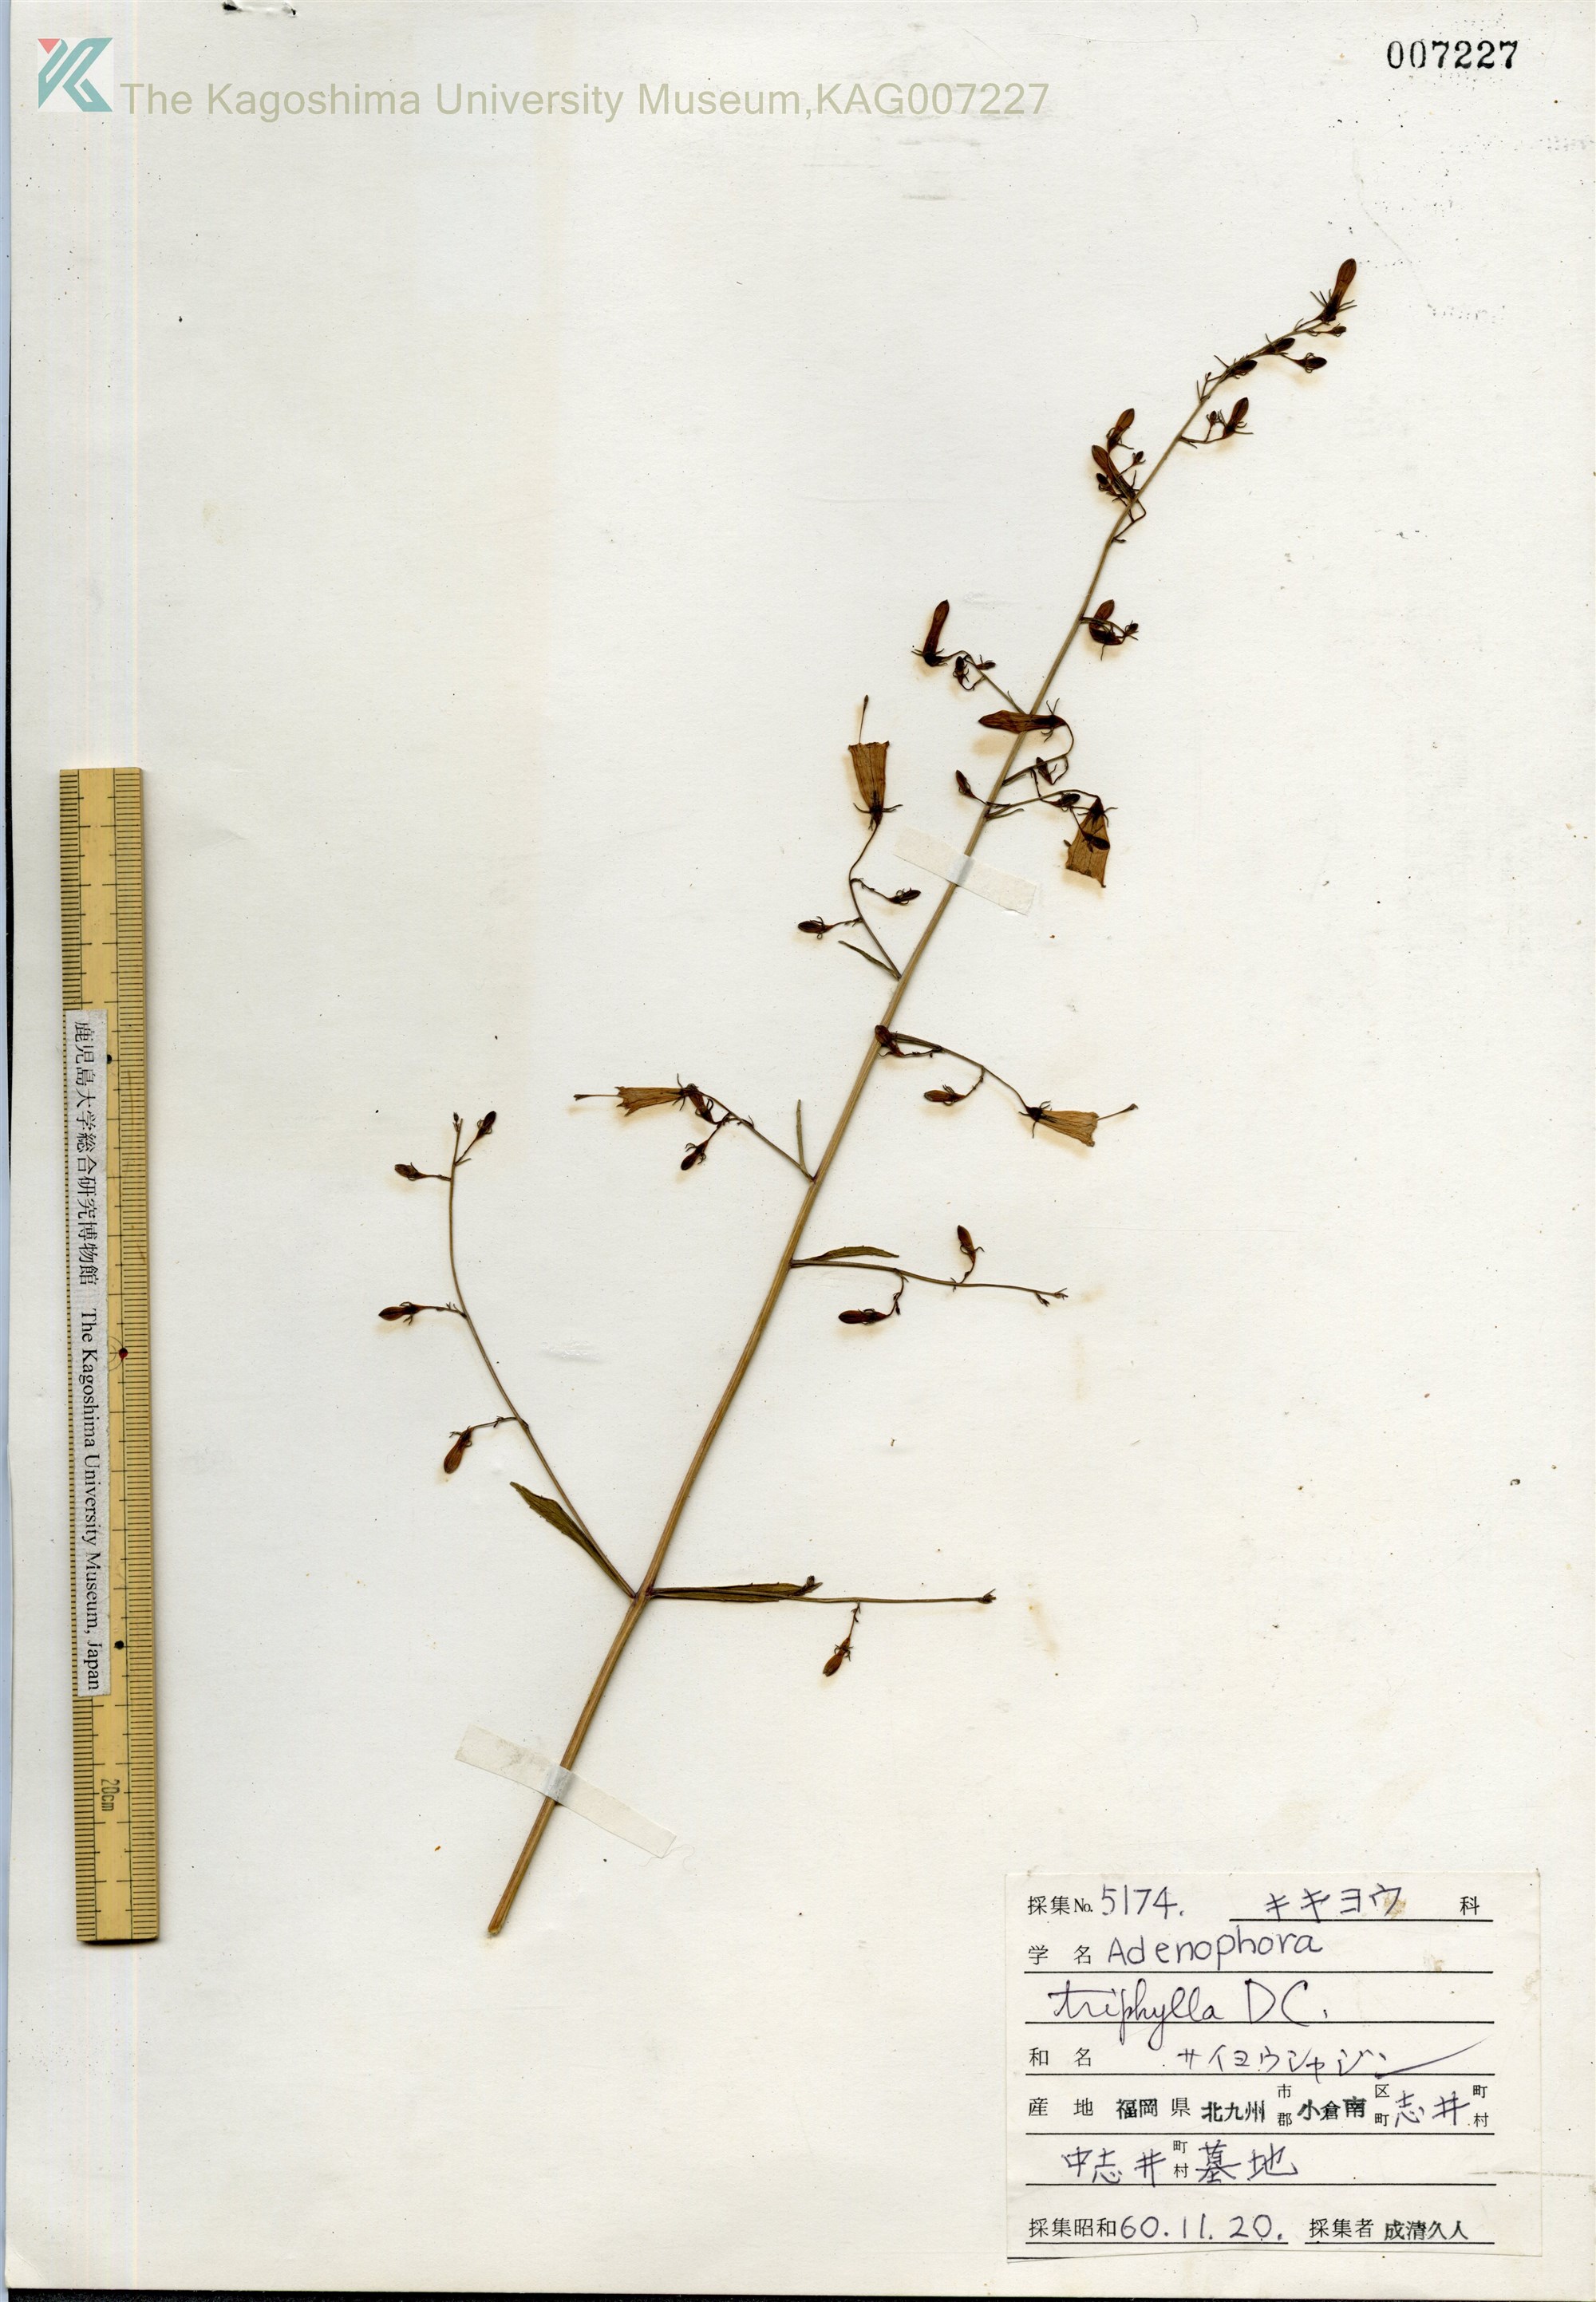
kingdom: Plantae
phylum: Tracheophyta
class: Magnoliopsida
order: Asterales
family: Campanulaceae
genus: Adenophora
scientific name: Adenophora triphylla
